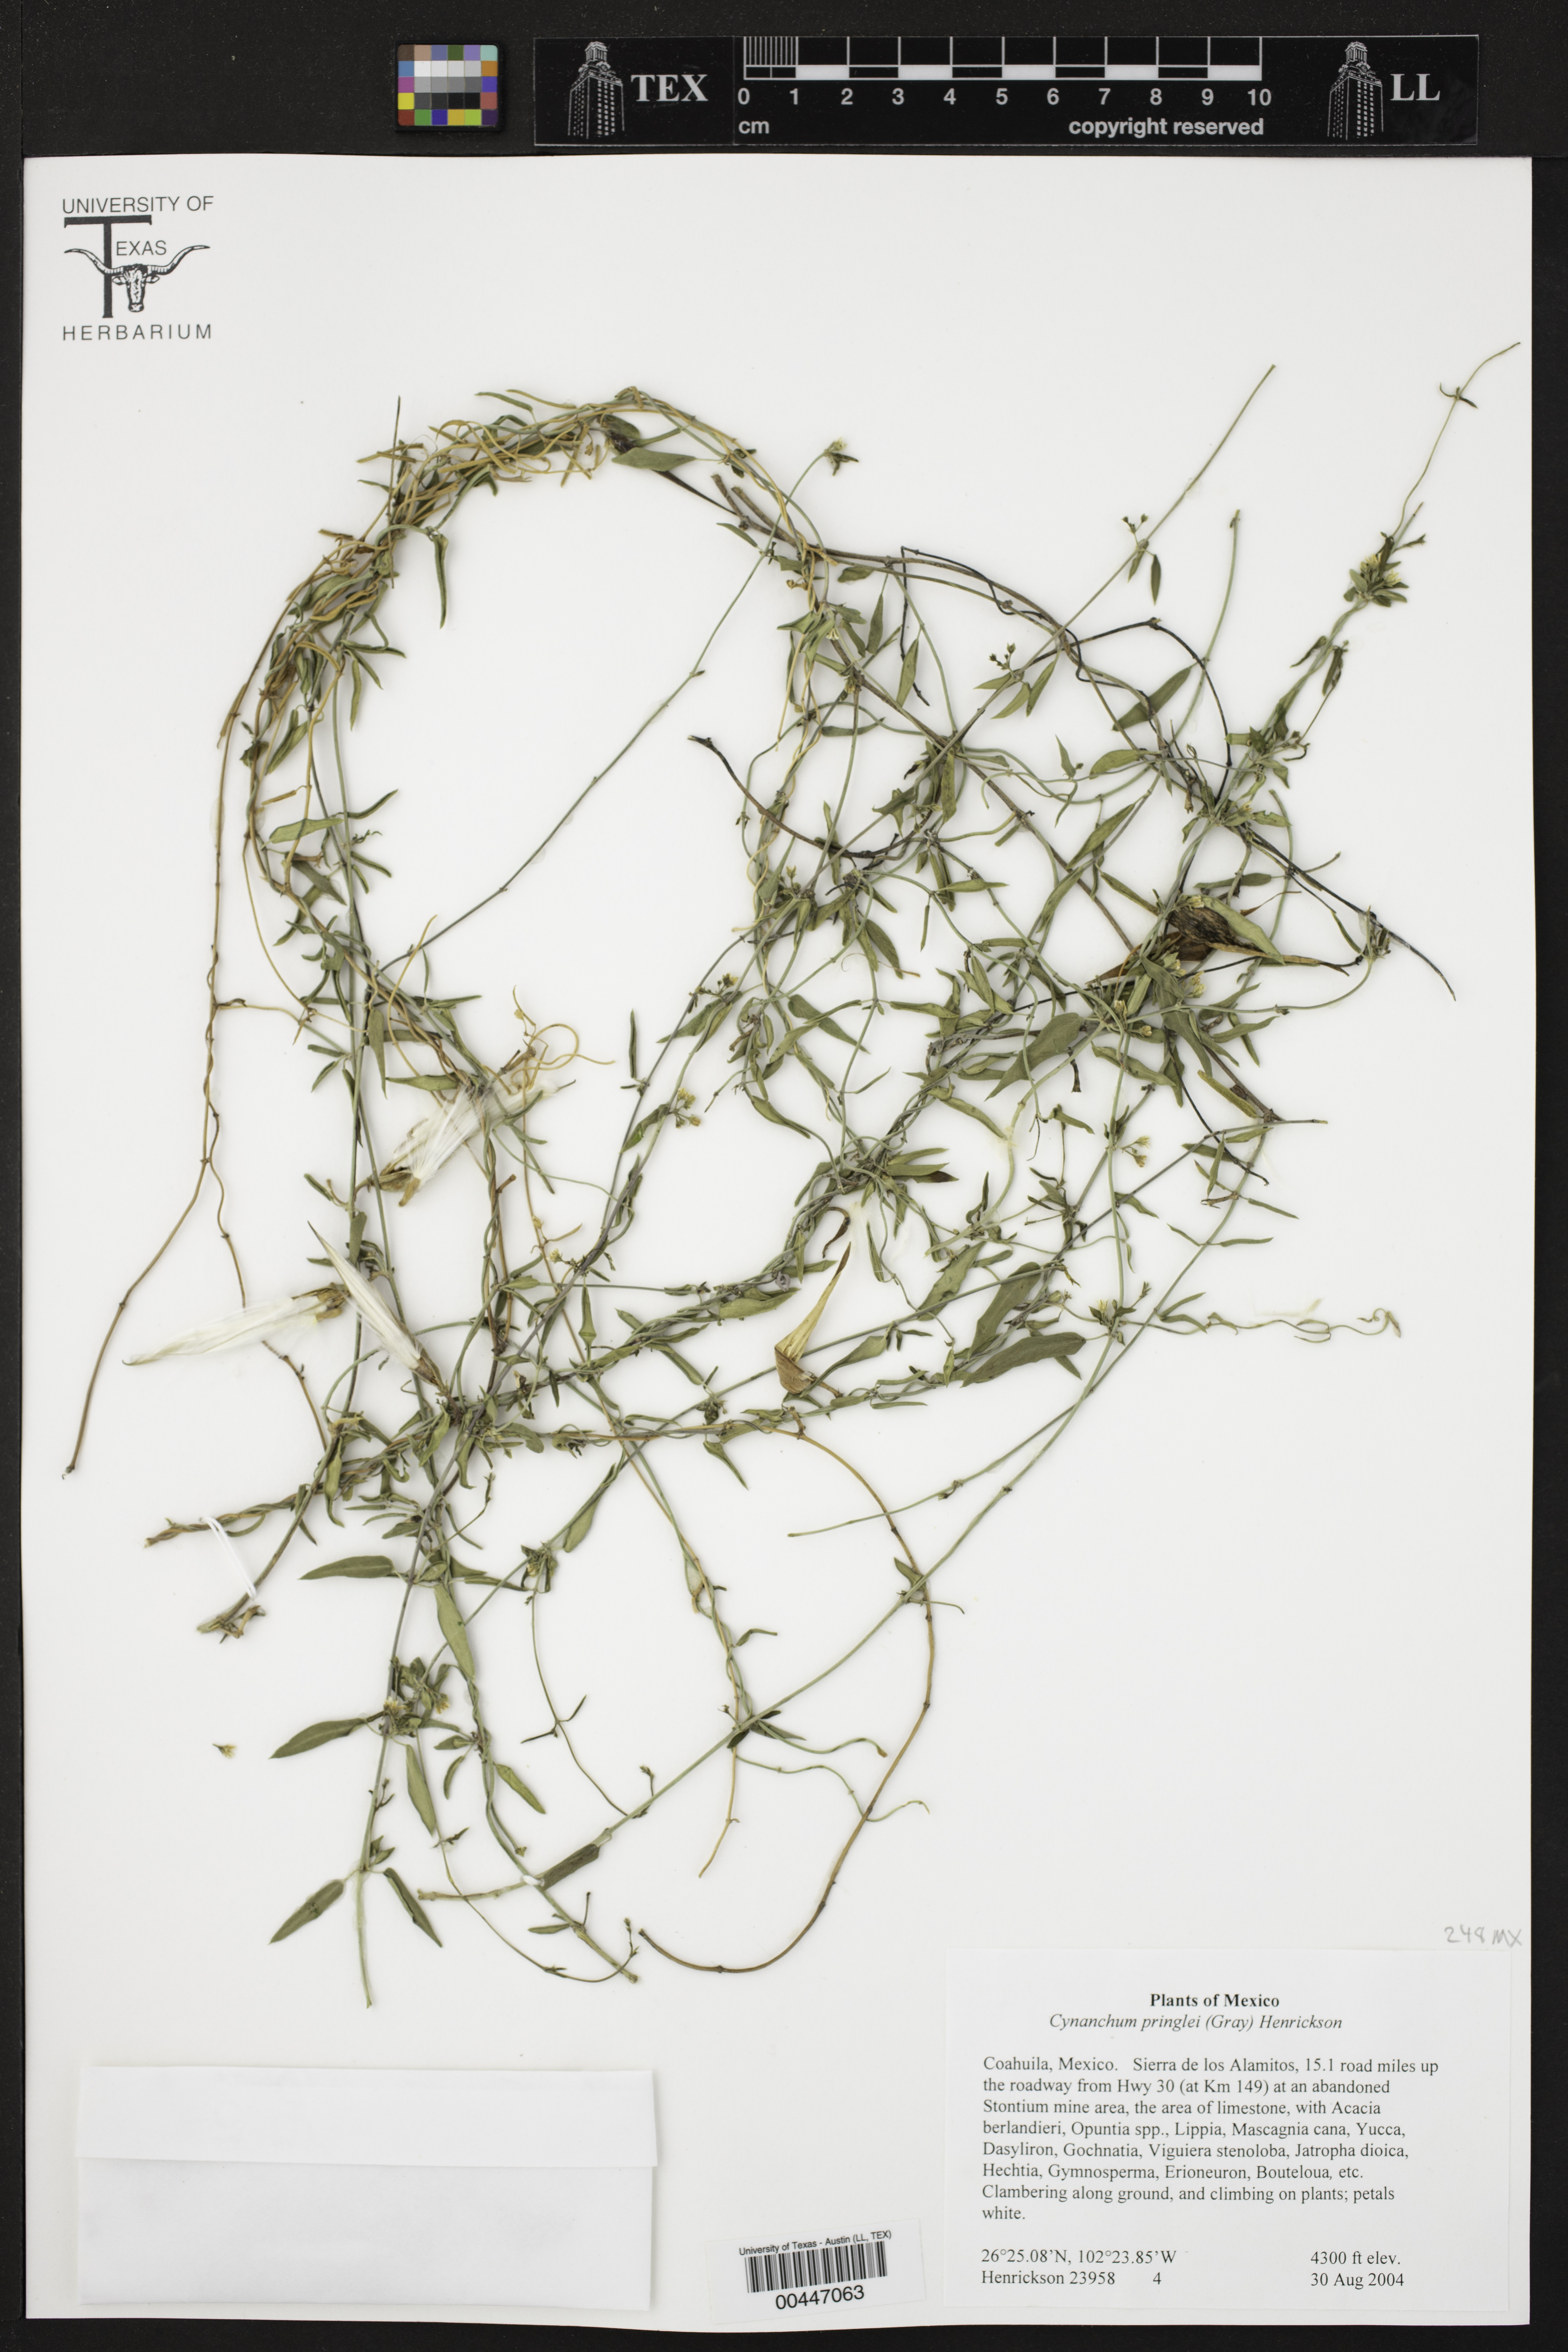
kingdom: Plantae
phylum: Tracheophyta
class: Magnoliopsida
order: Gentianales
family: Apocynaceae
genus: Metastelma
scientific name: Metastelma pringlei
